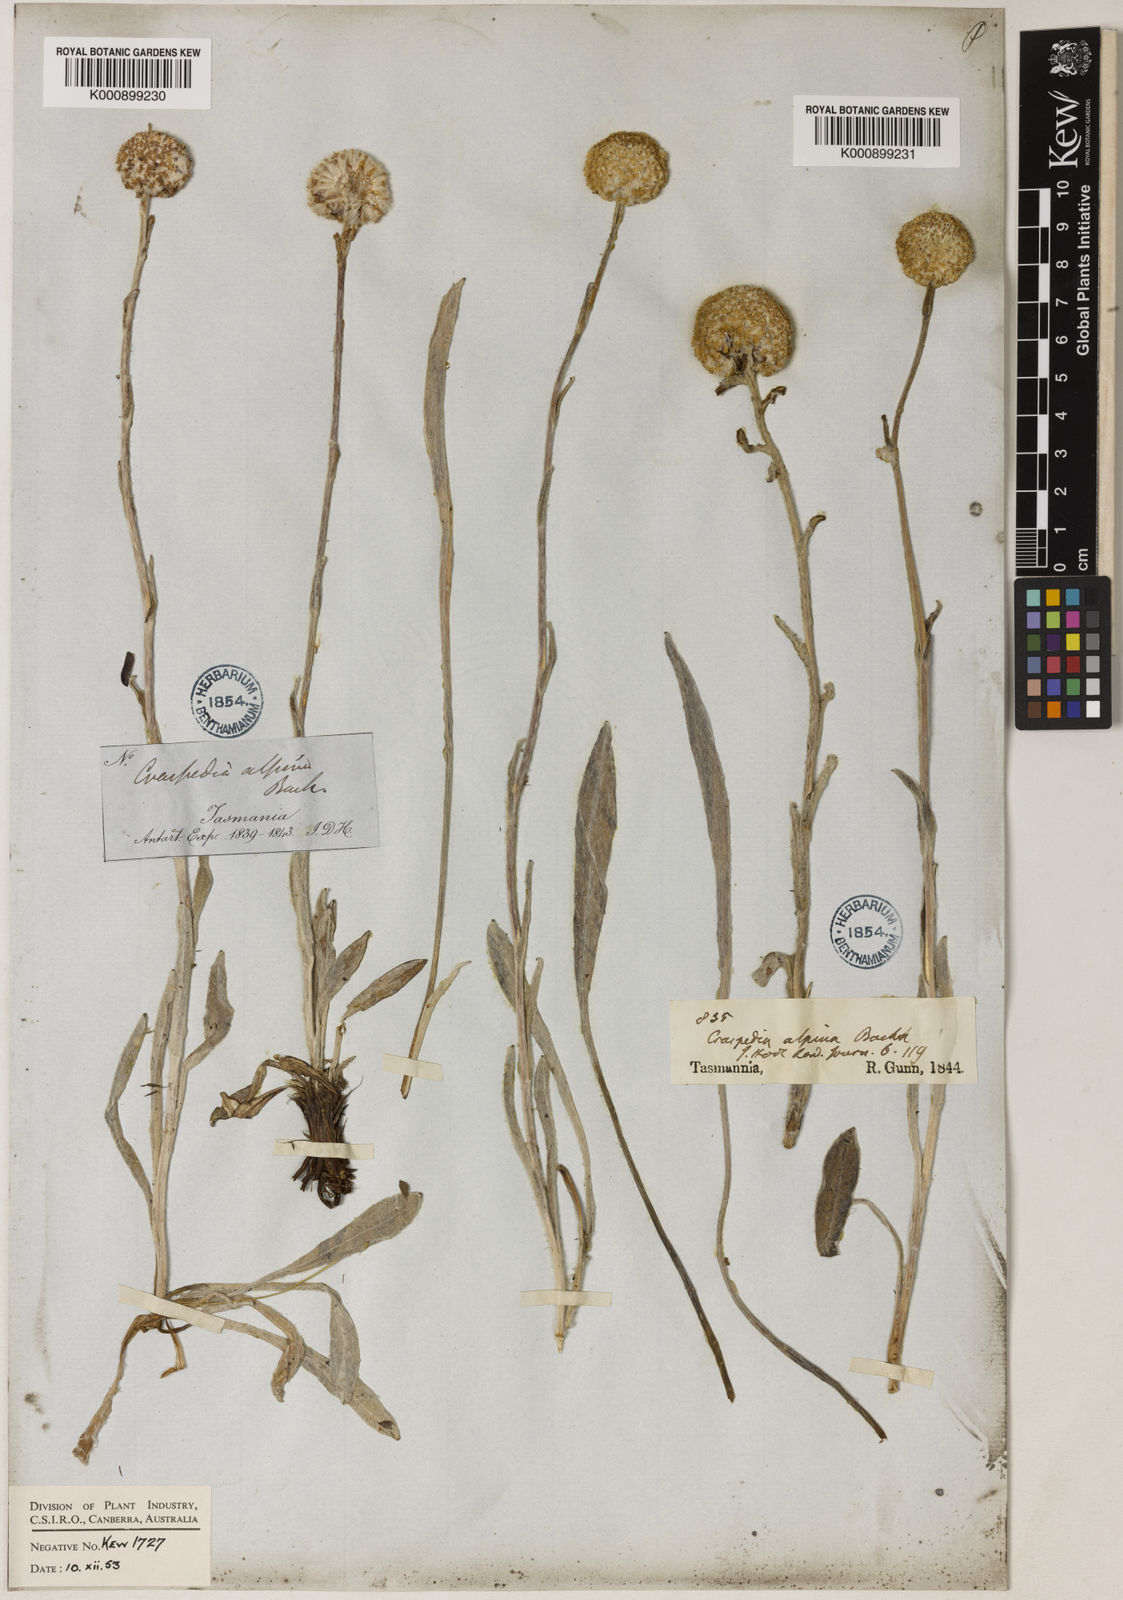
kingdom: Plantae
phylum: Tracheophyta
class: Magnoliopsida
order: Asterales
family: Asteraceae
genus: Craspedia
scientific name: Craspedia glauca
